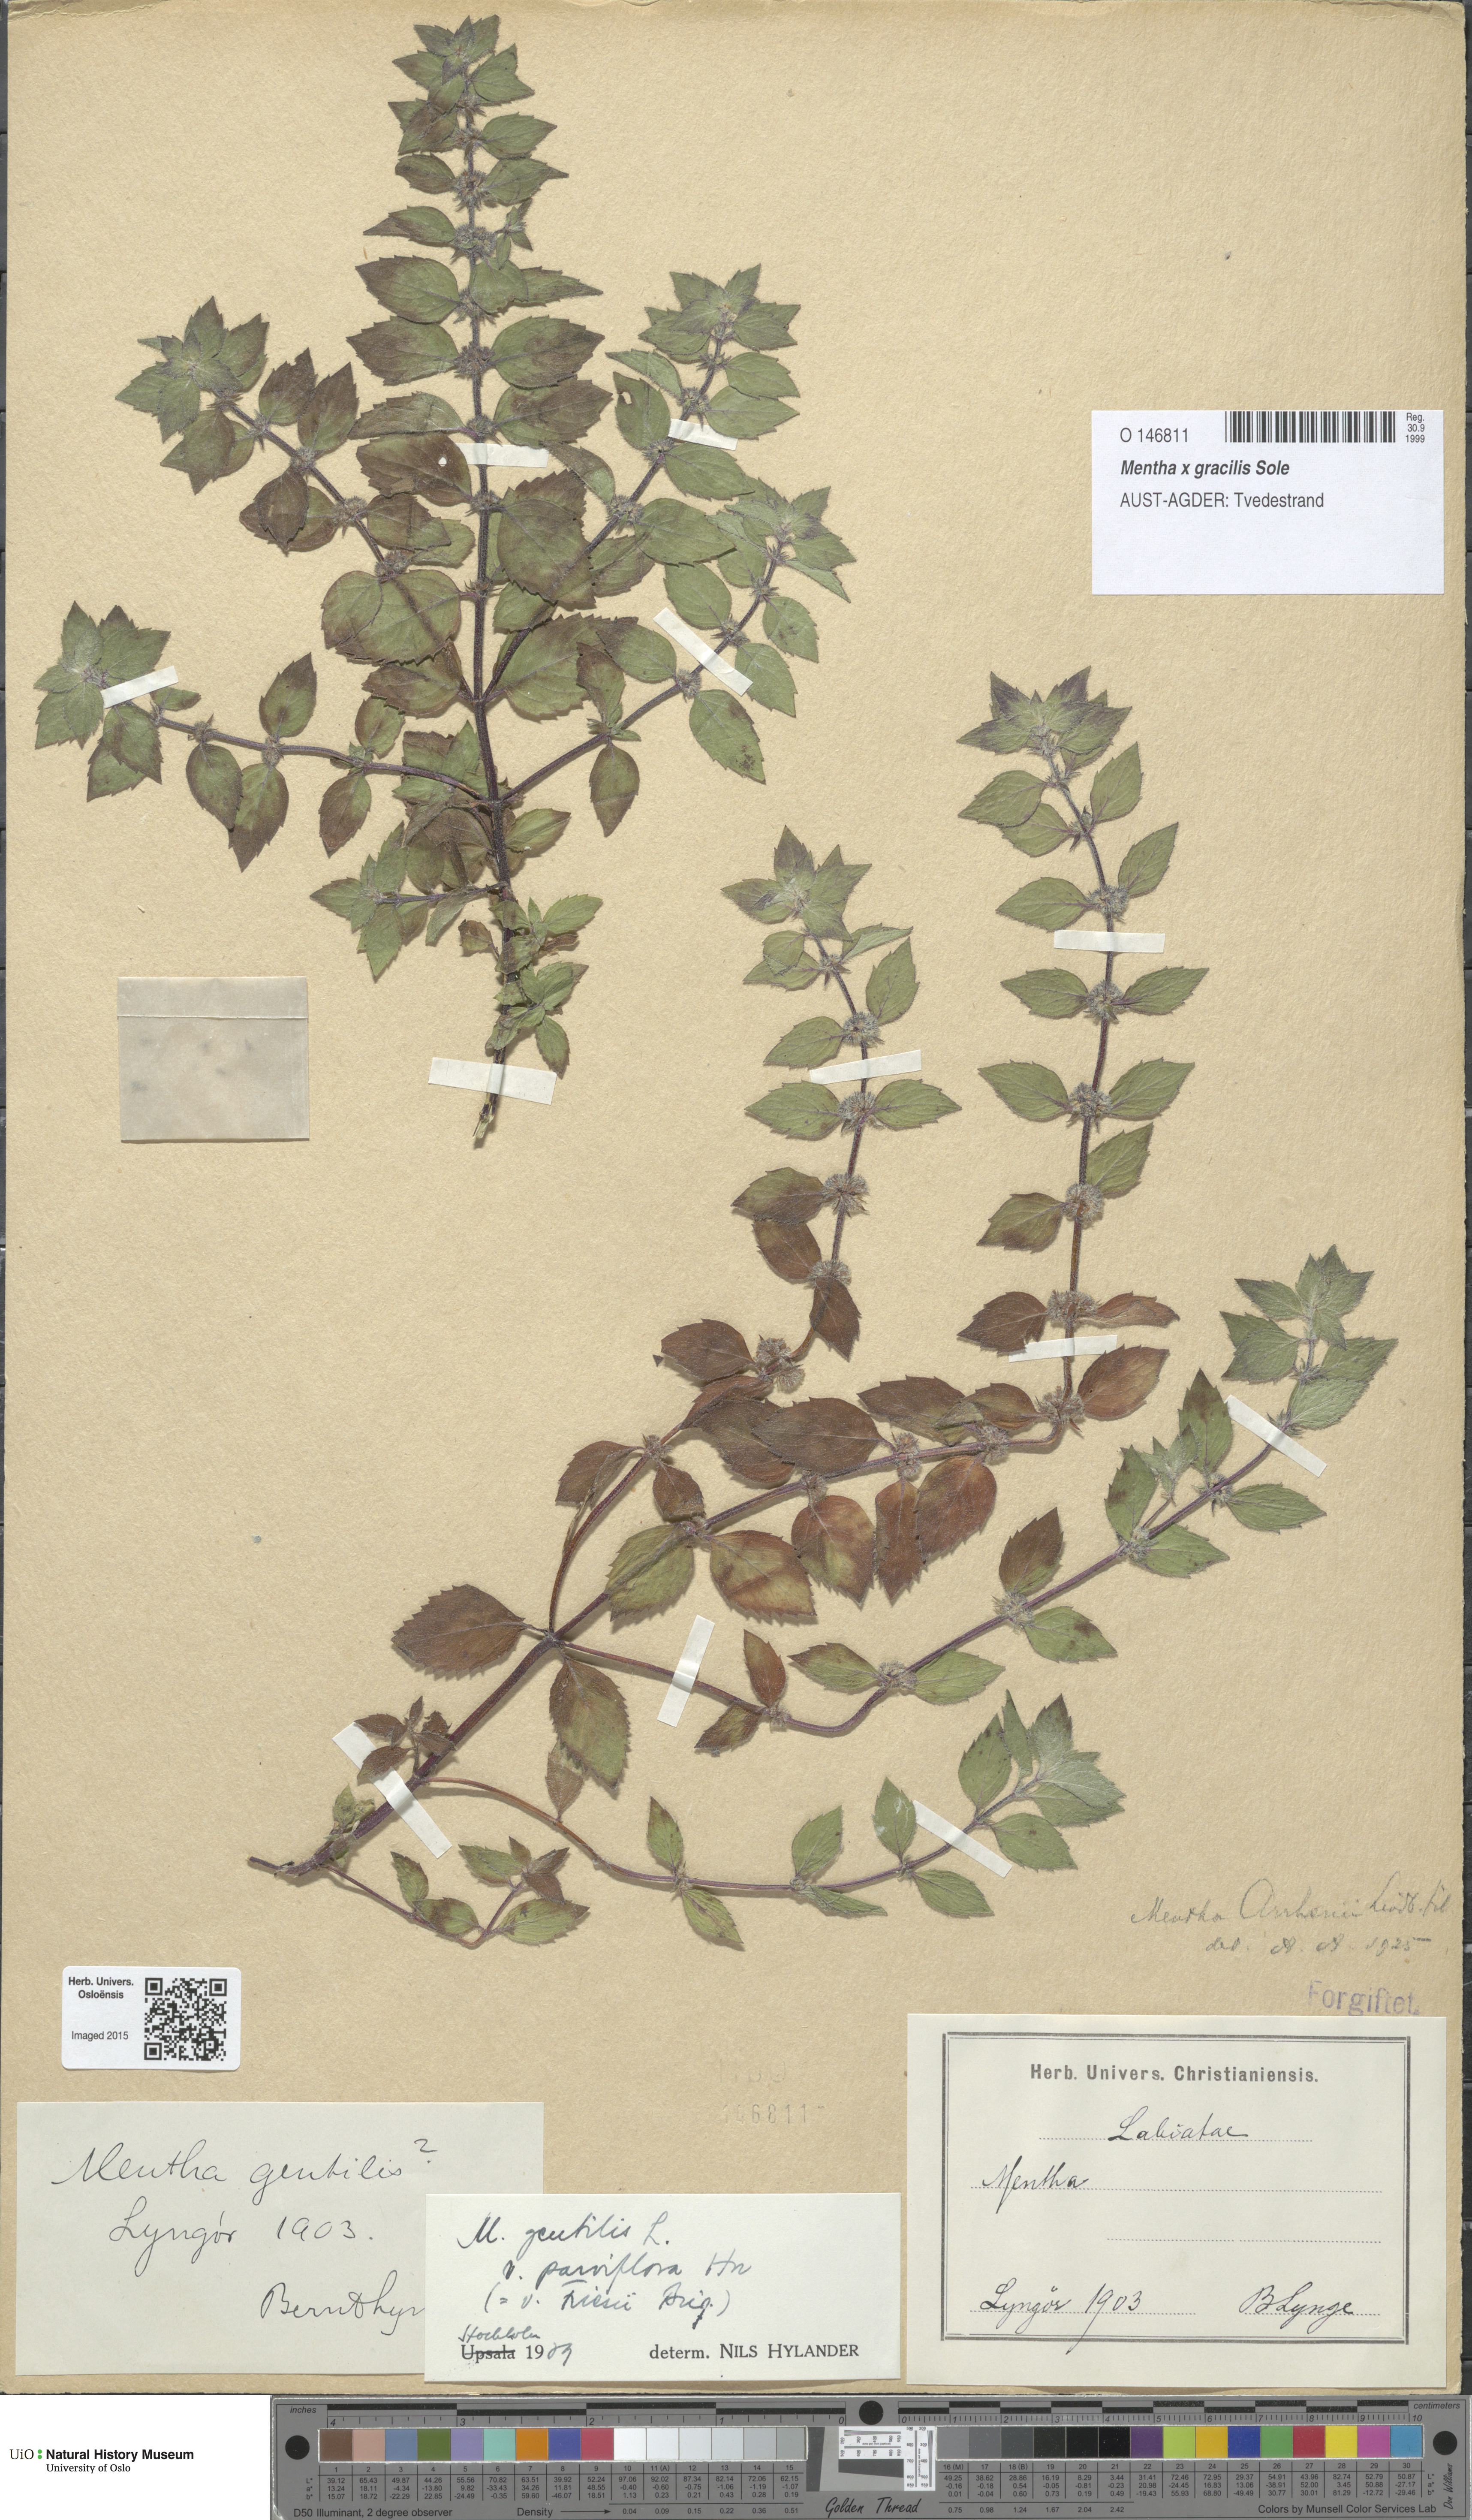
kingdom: Plantae
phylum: Tracheophyta
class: Magnoliopsida
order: Lamiales
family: Lamiaceae
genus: Mentha
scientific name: Mentha arvensis
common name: Corn mint
